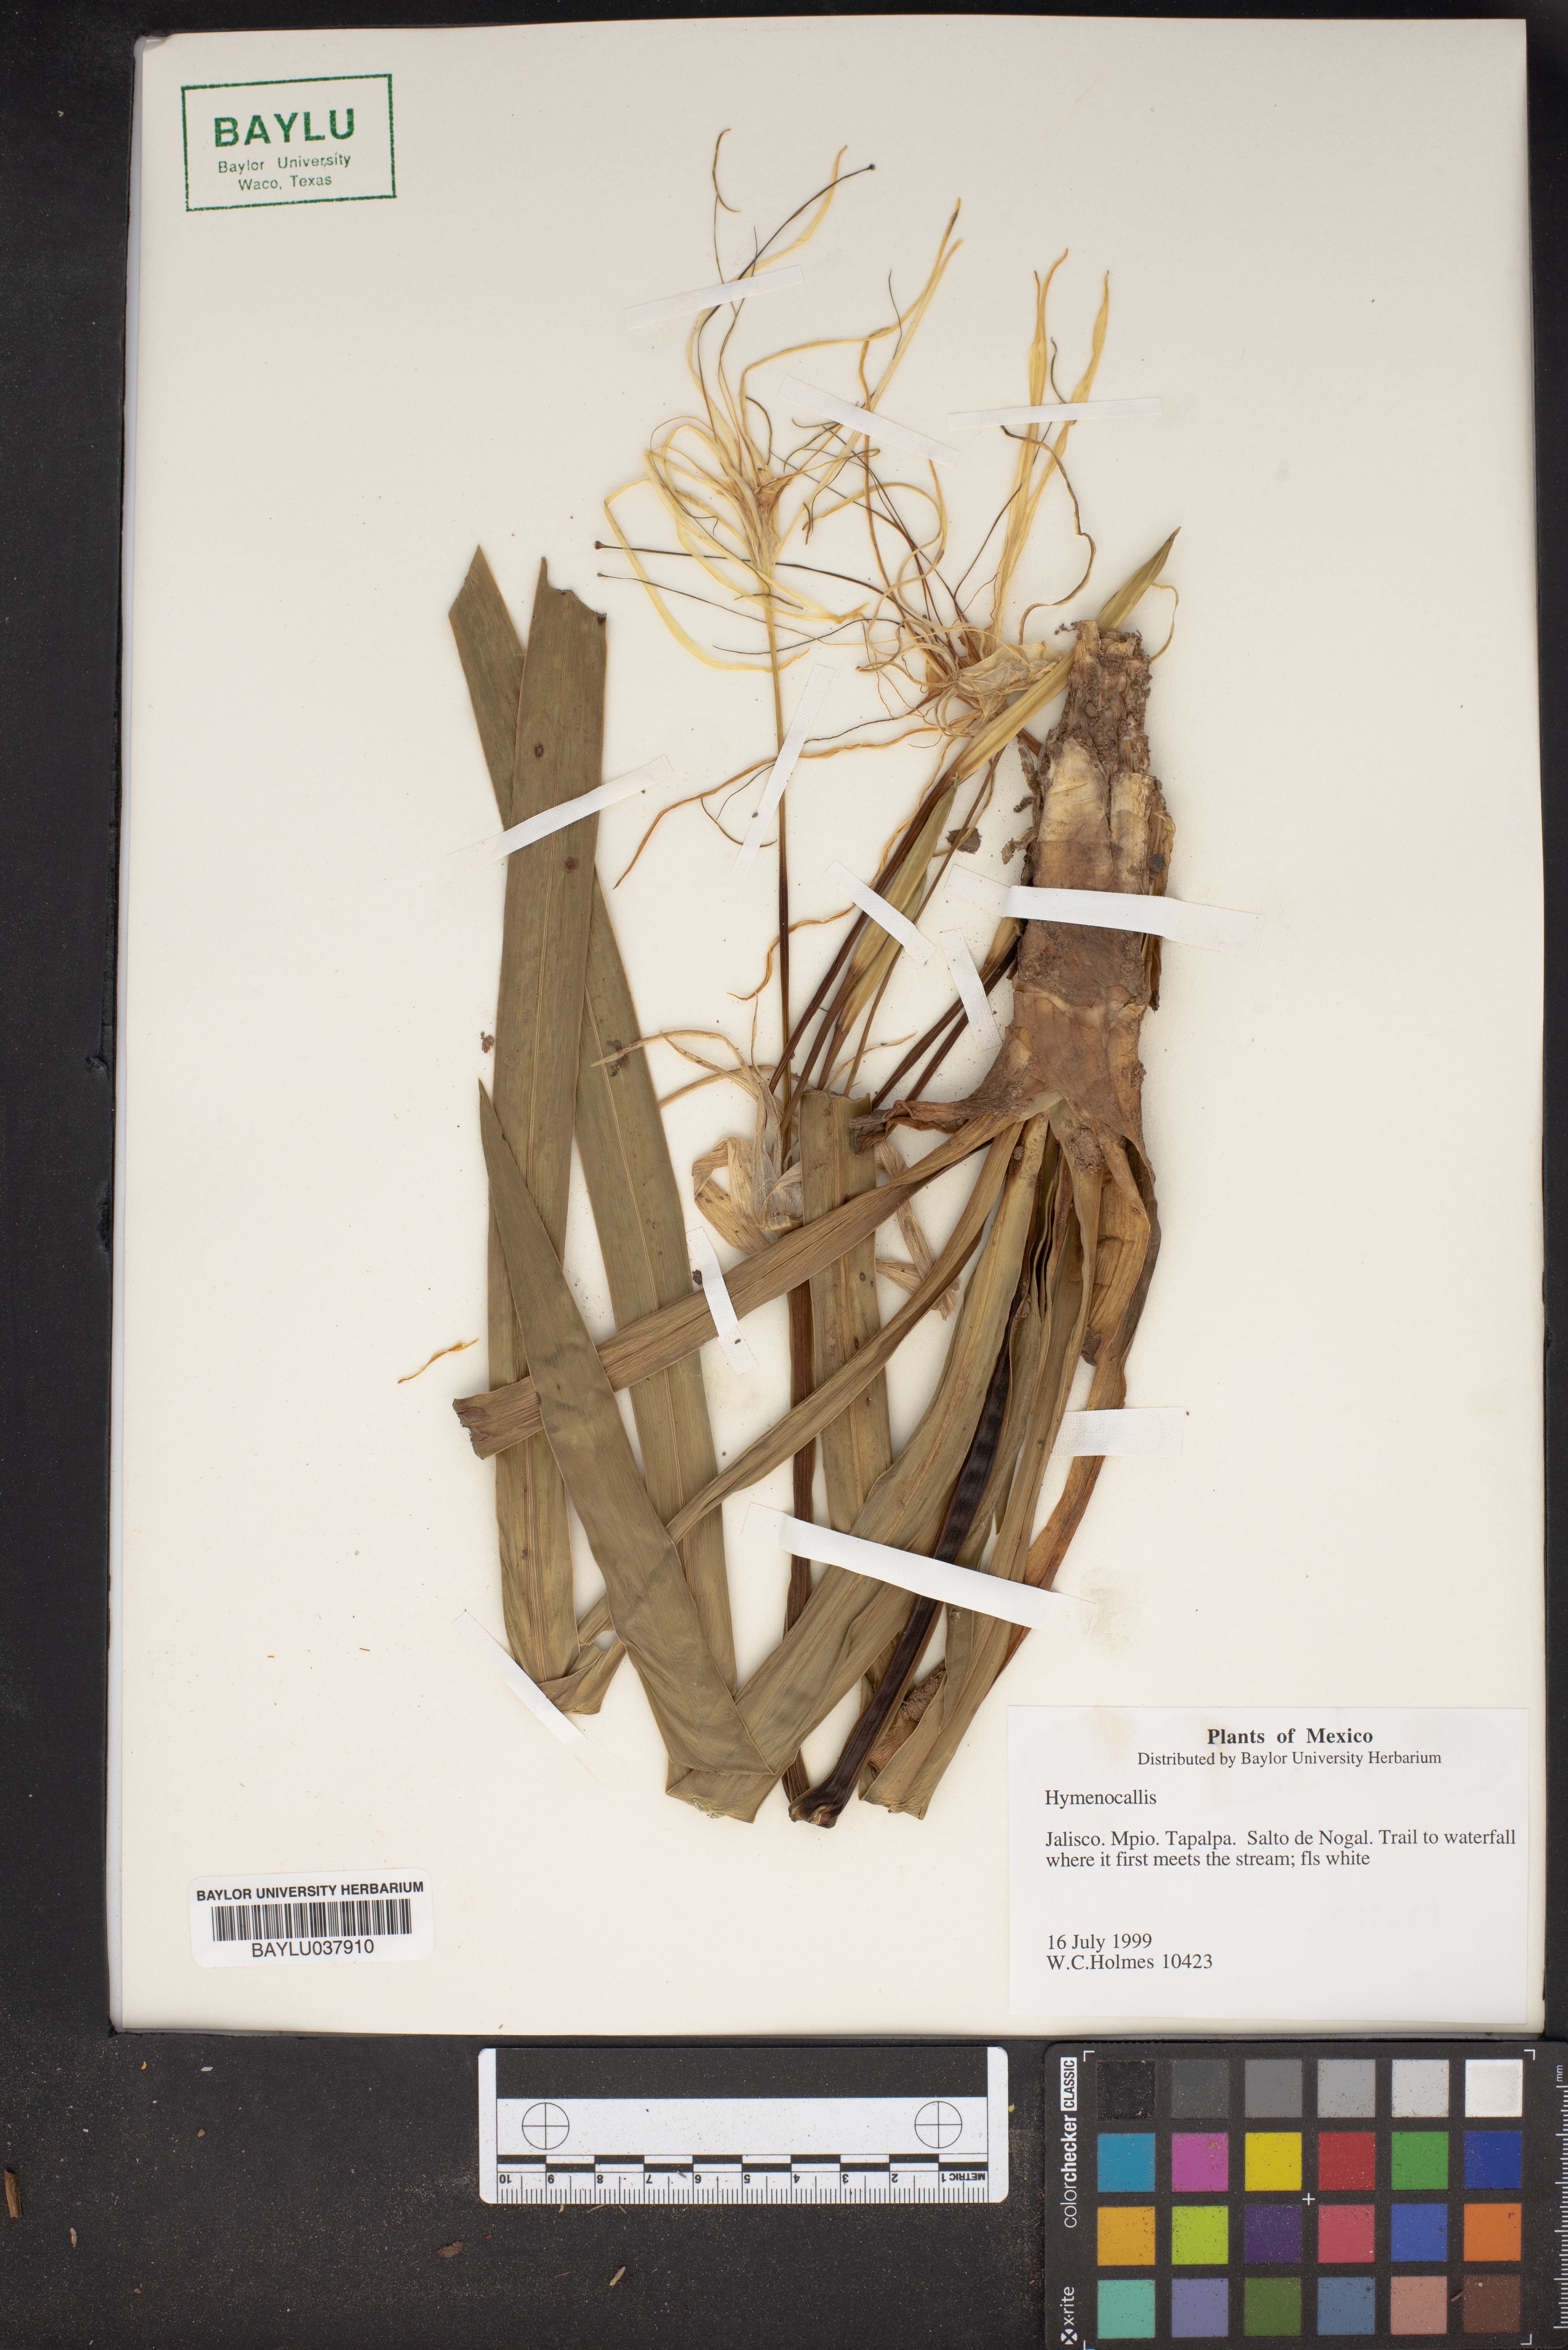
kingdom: Plantae
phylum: Tracheophyta
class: Liliopsida
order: Asparagales
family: Amaryllidaceae
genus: Hymenocallis
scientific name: Hymenocallis
